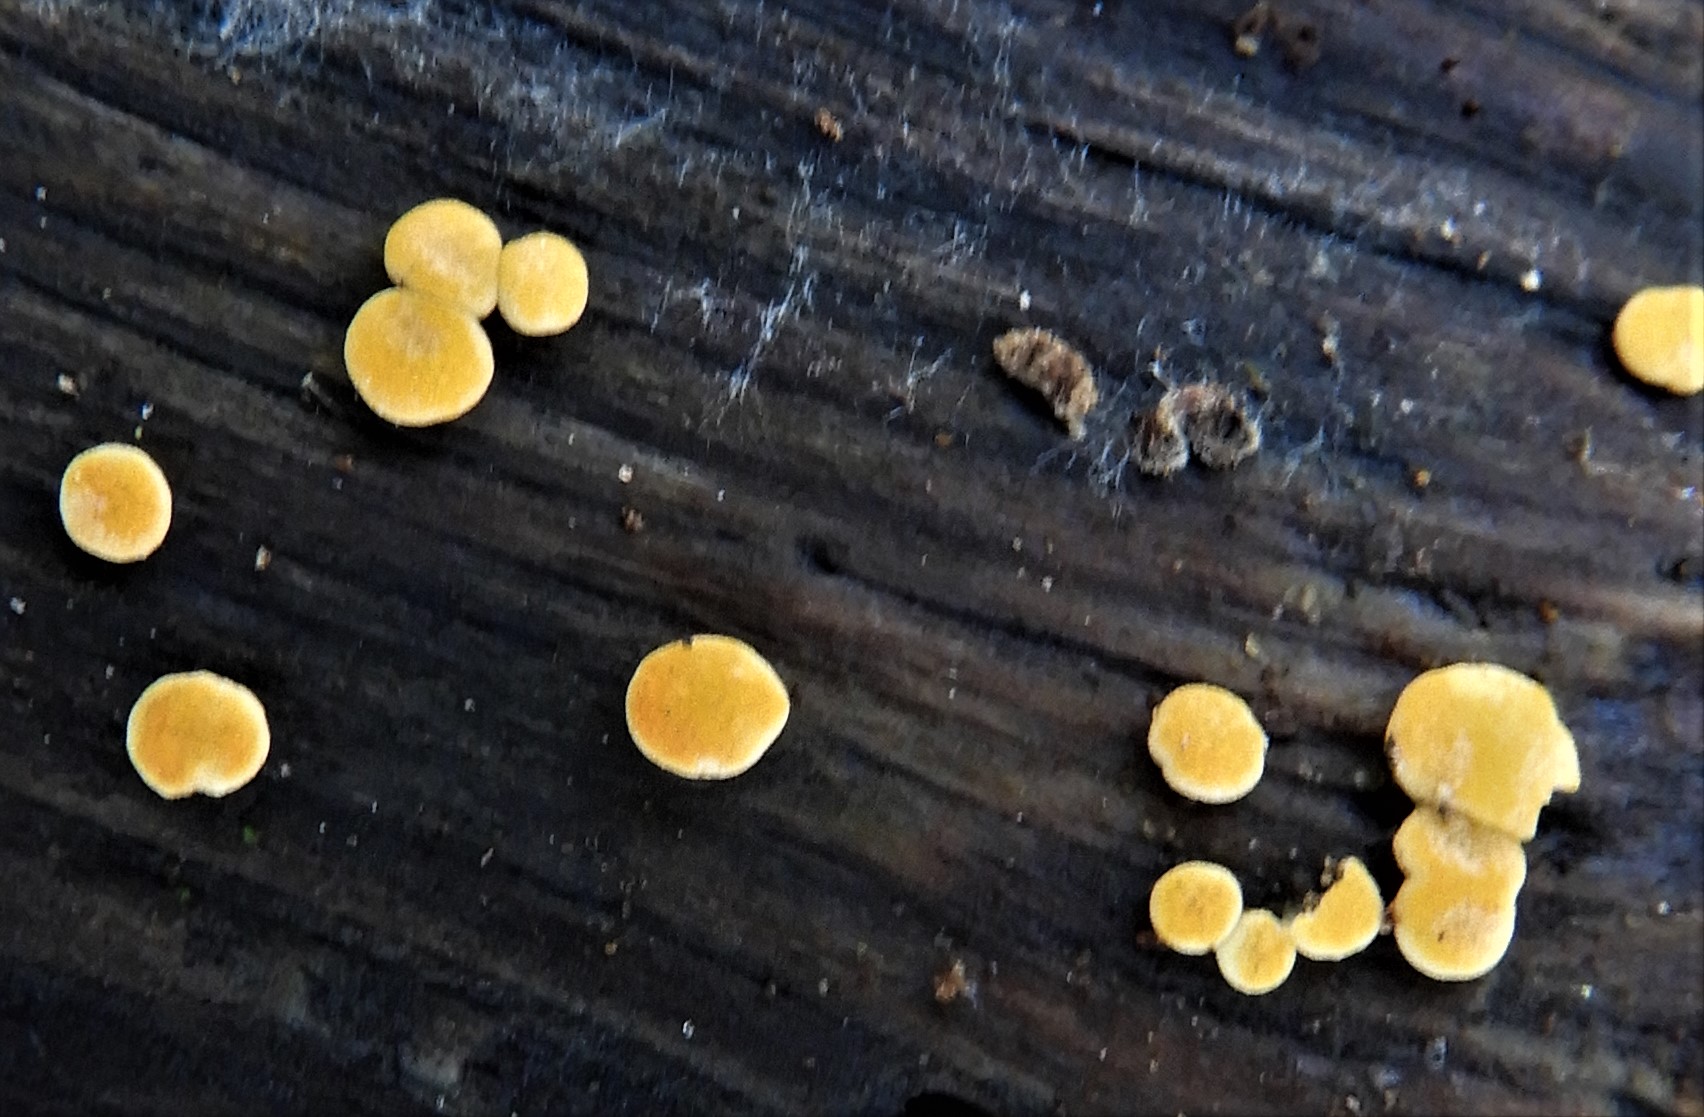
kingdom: Fungi
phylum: Ascomycota
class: Sordariomycetes
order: Hypocreales
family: Hypocreaceae
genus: Trichoderma
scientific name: Trichoderma aureoviride
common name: æggegul kødkerne
